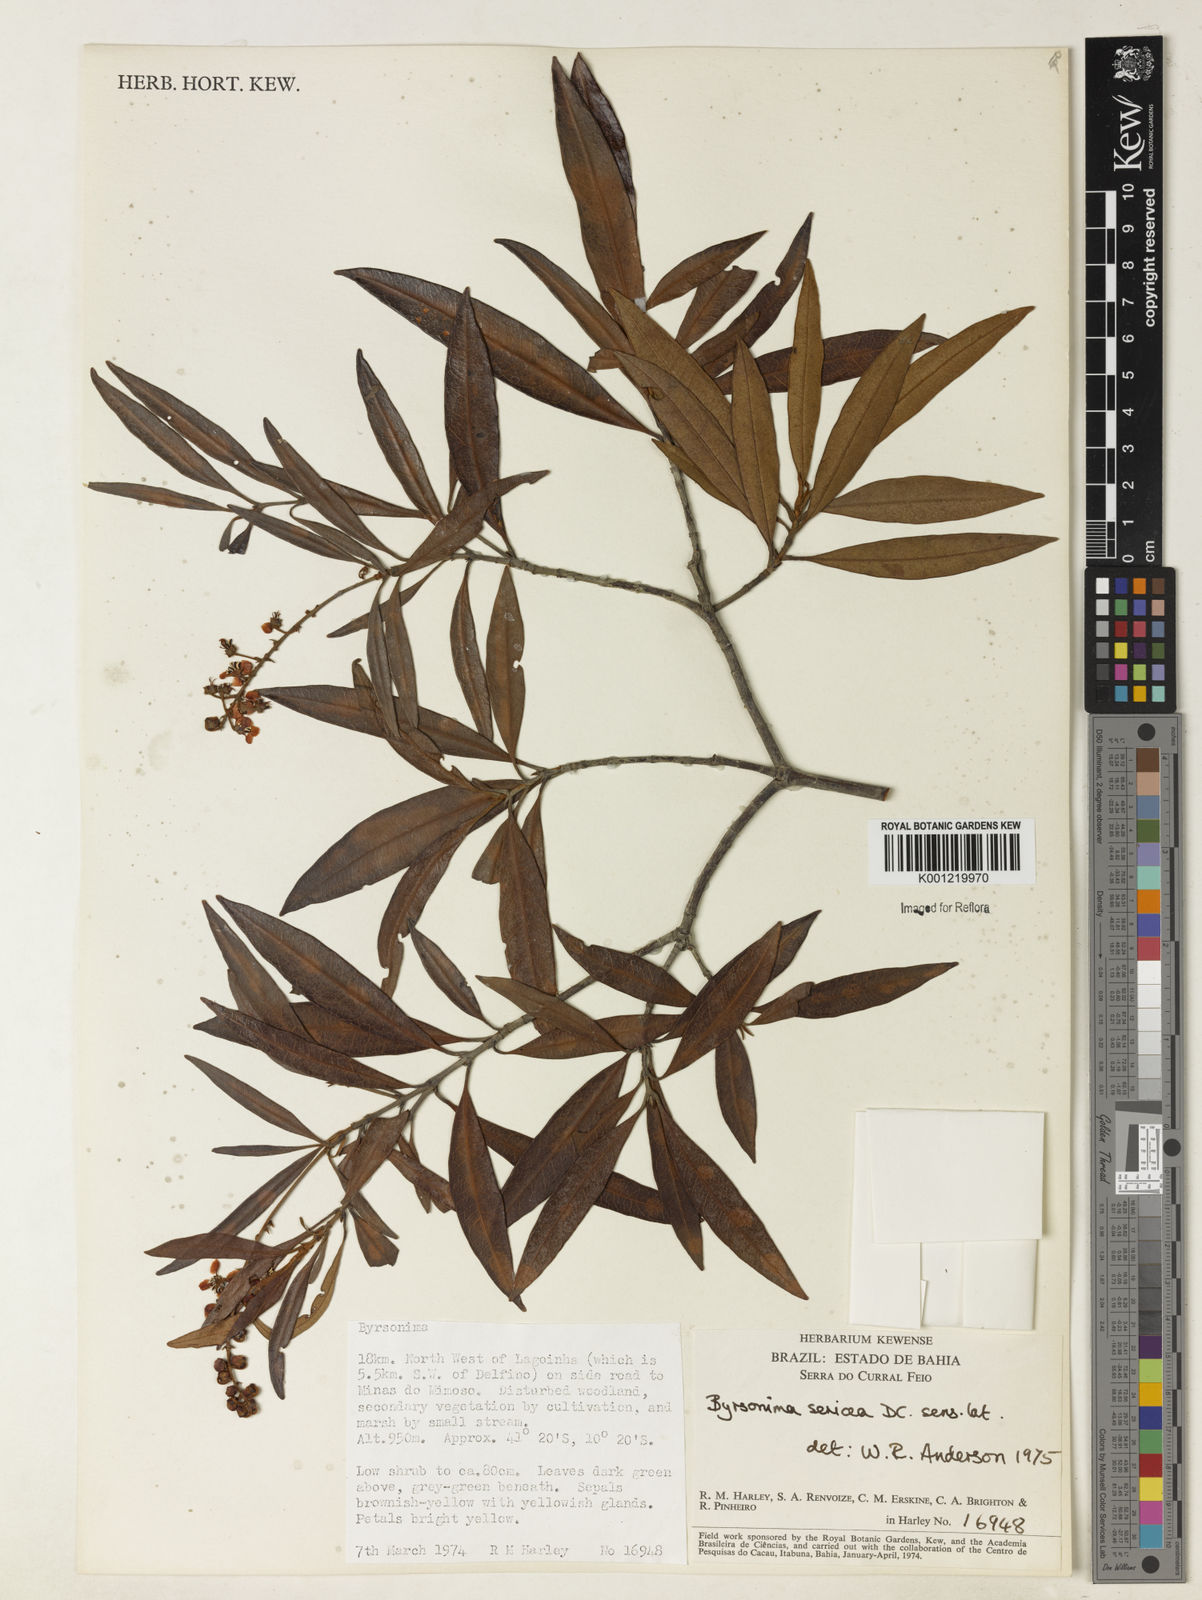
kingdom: Plantae
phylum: Tracheophyta
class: Magnoliopsida
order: Malpighiales
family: Malpighiaceae
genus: Byrsonima
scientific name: Byrsonima sericea
